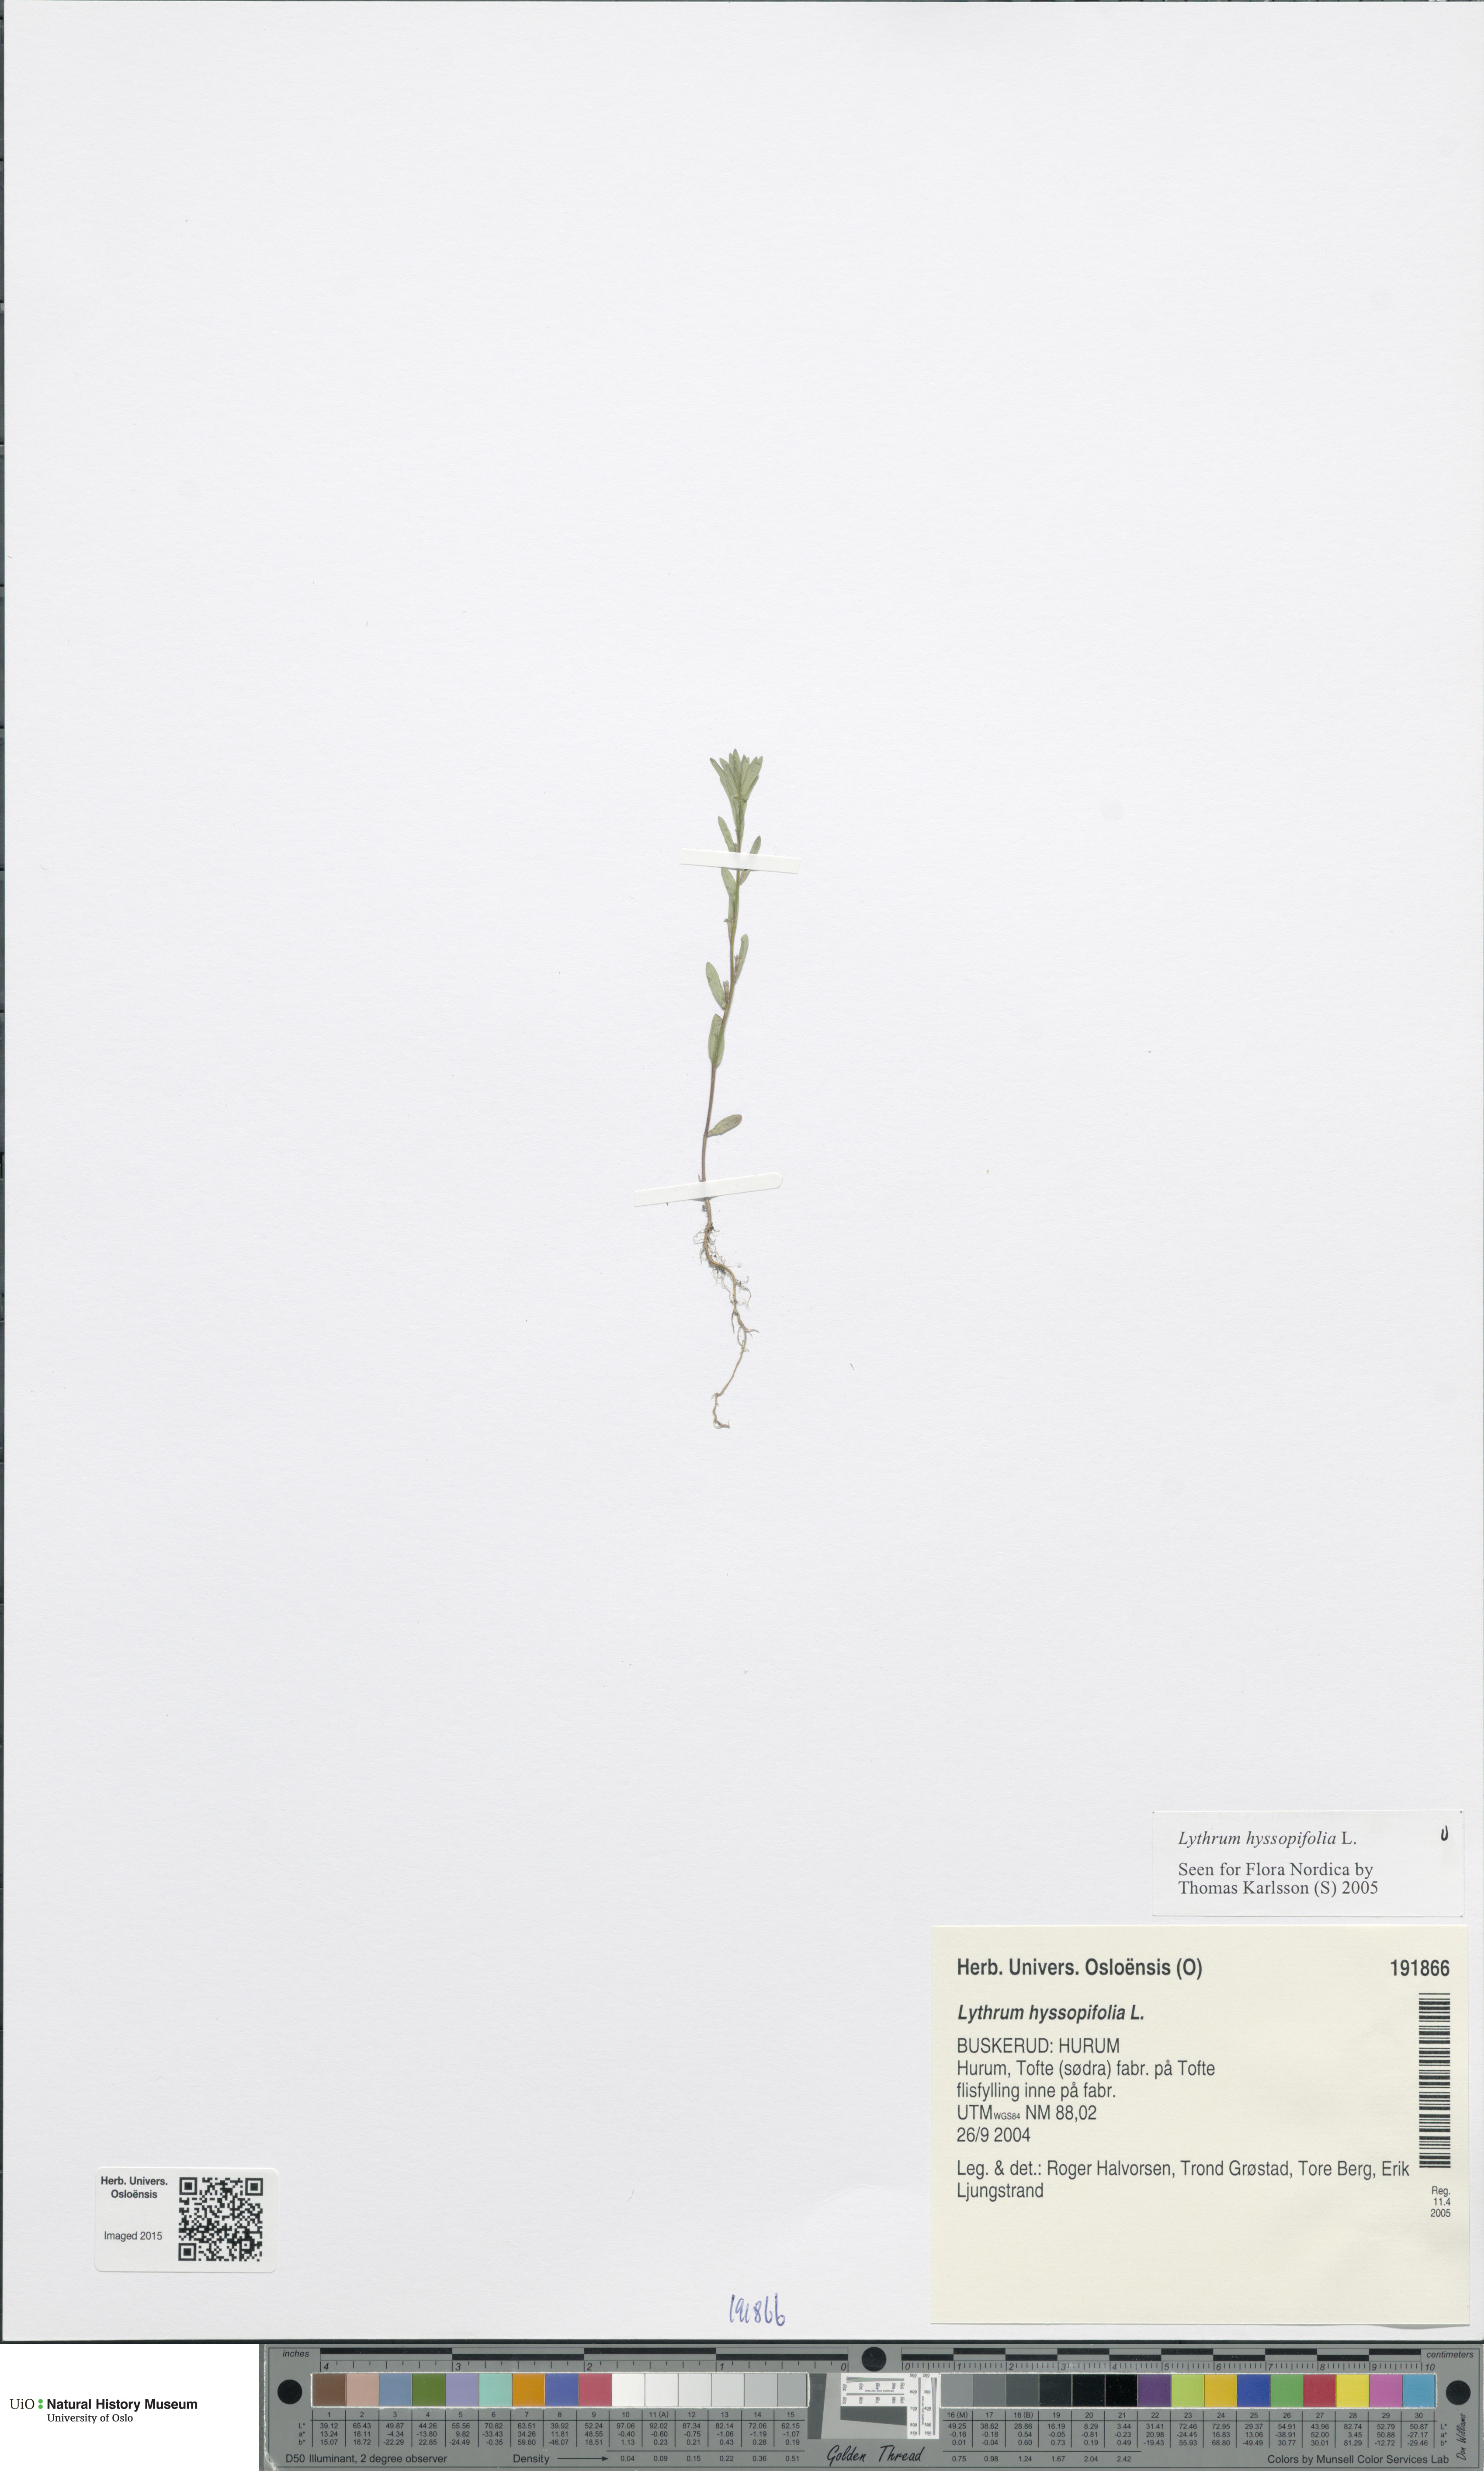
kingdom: Plantae
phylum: Tracheophyta
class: Magnoliopsida
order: Myrtales
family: Lythraceae
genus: Lythrum
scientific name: Lythrum hyssopifolia
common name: Grass-poly
